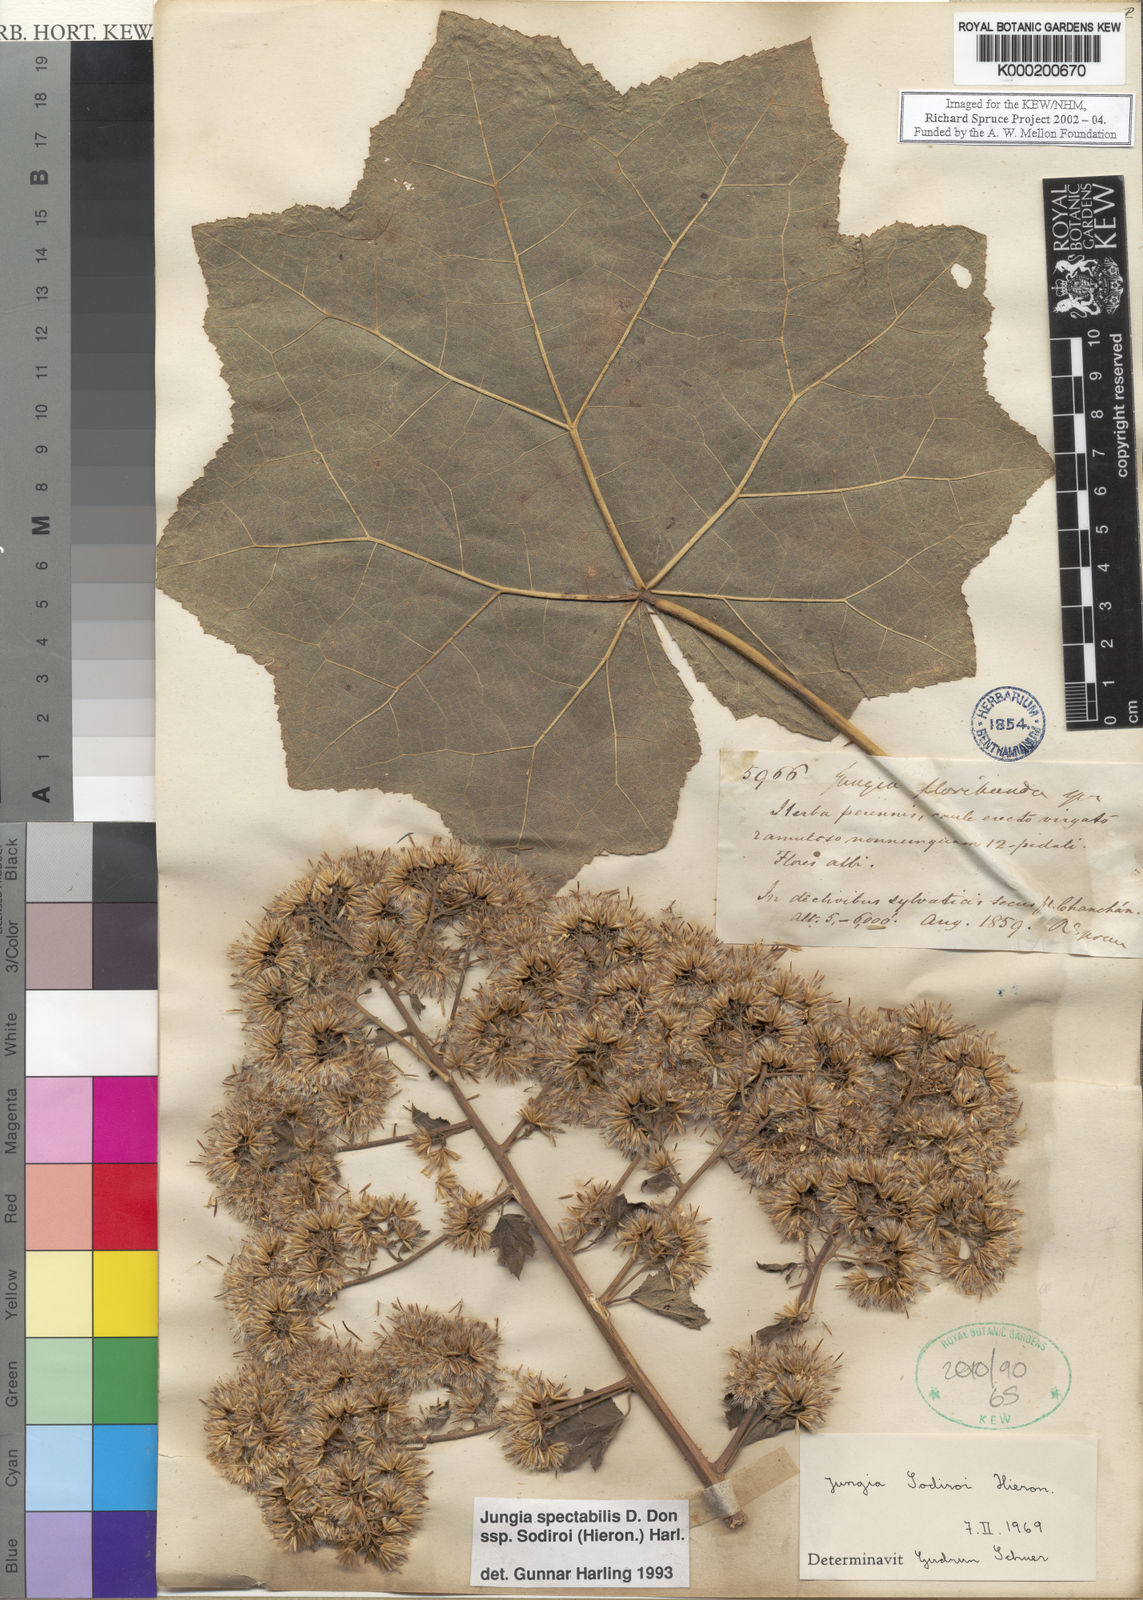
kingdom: Plantae
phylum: Tracheophyta
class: Magnoliopsida
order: Asterales
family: Asteraceae
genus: Jungia
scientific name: Jungia spectabilis
